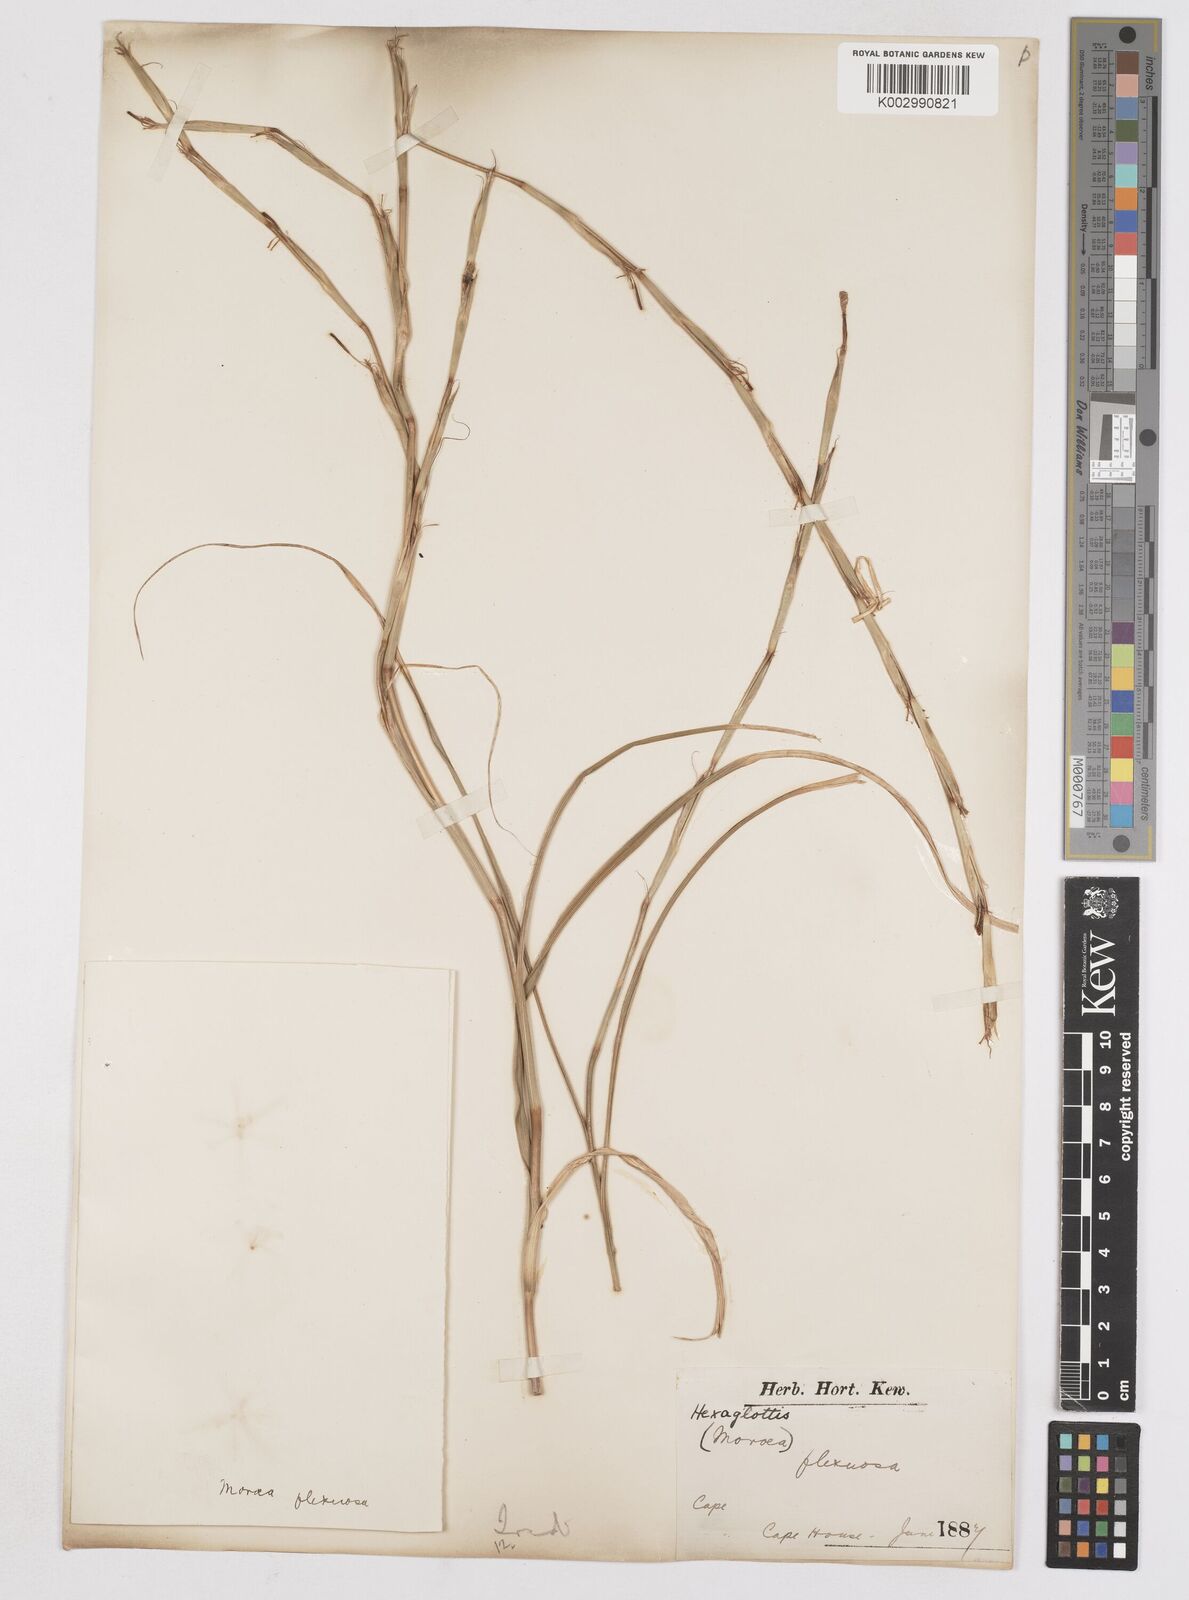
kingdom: Plantae
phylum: Tracheophyta
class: Liliopsida
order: Asparagales
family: Iridaceae
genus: Moraea
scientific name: Moraea lewisiae
